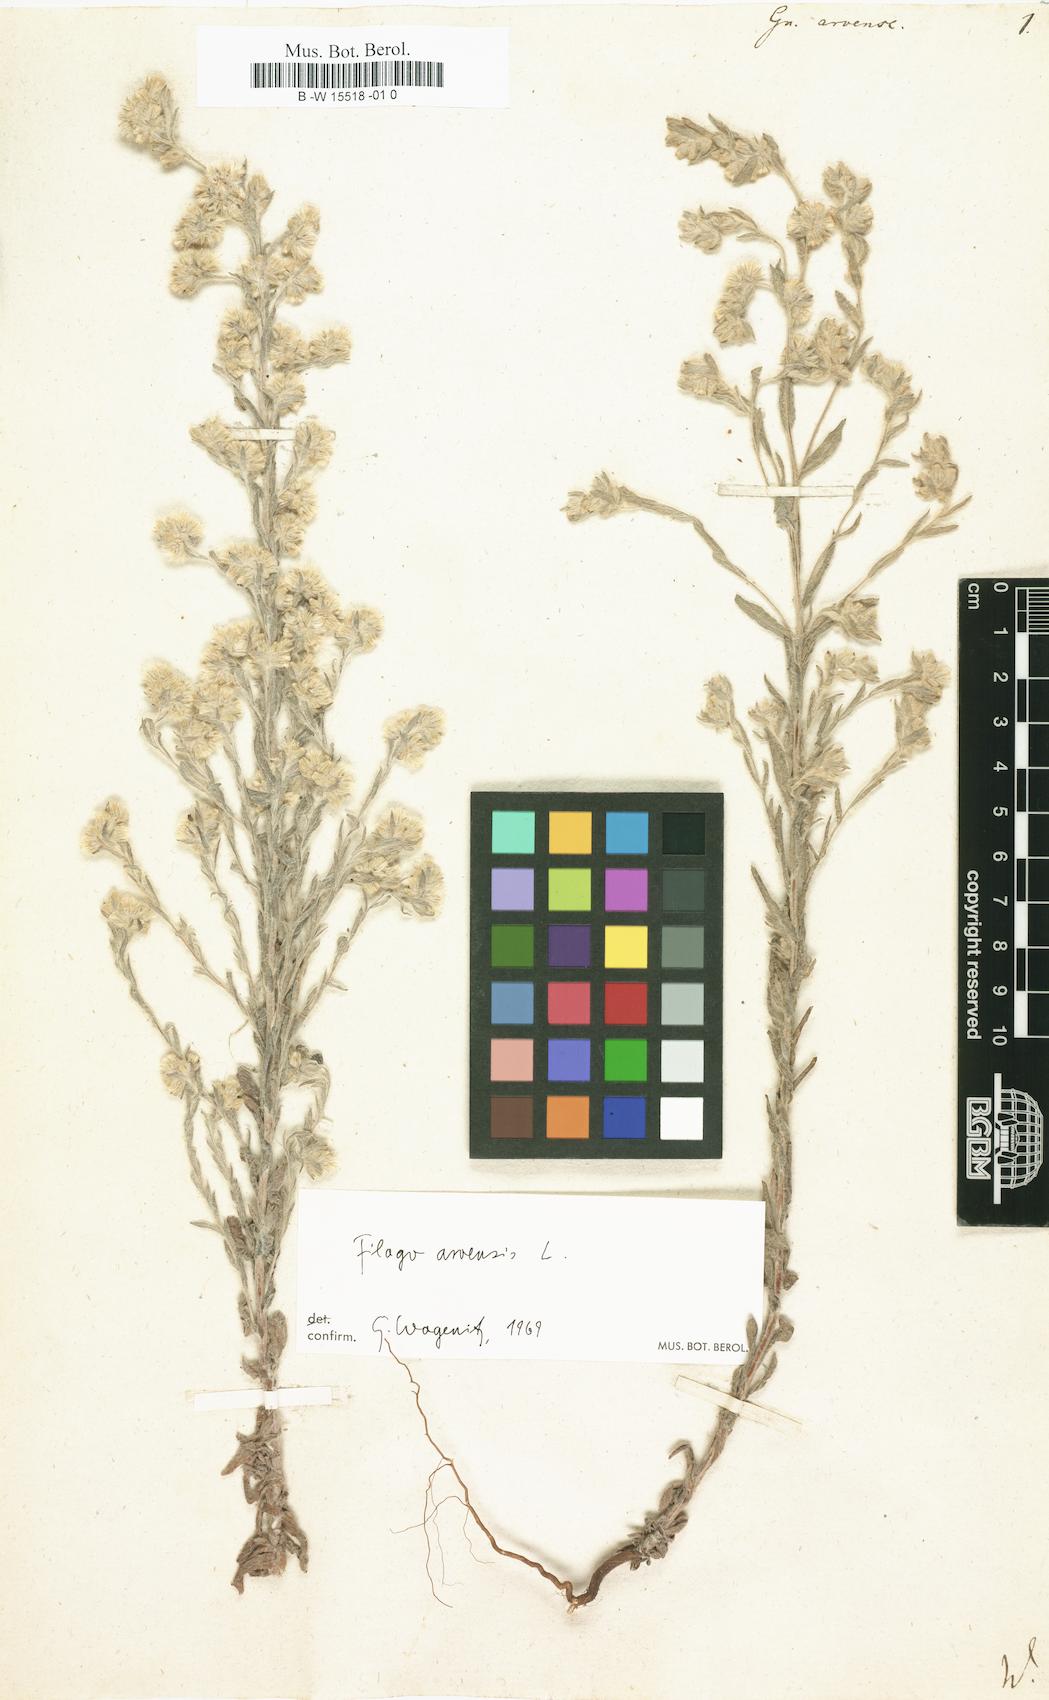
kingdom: Plantae
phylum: Tracheophyta
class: Magnoliopsida
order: Asterales
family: Asteraceae
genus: Filago
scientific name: Filago arvensis
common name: Field cudweed
